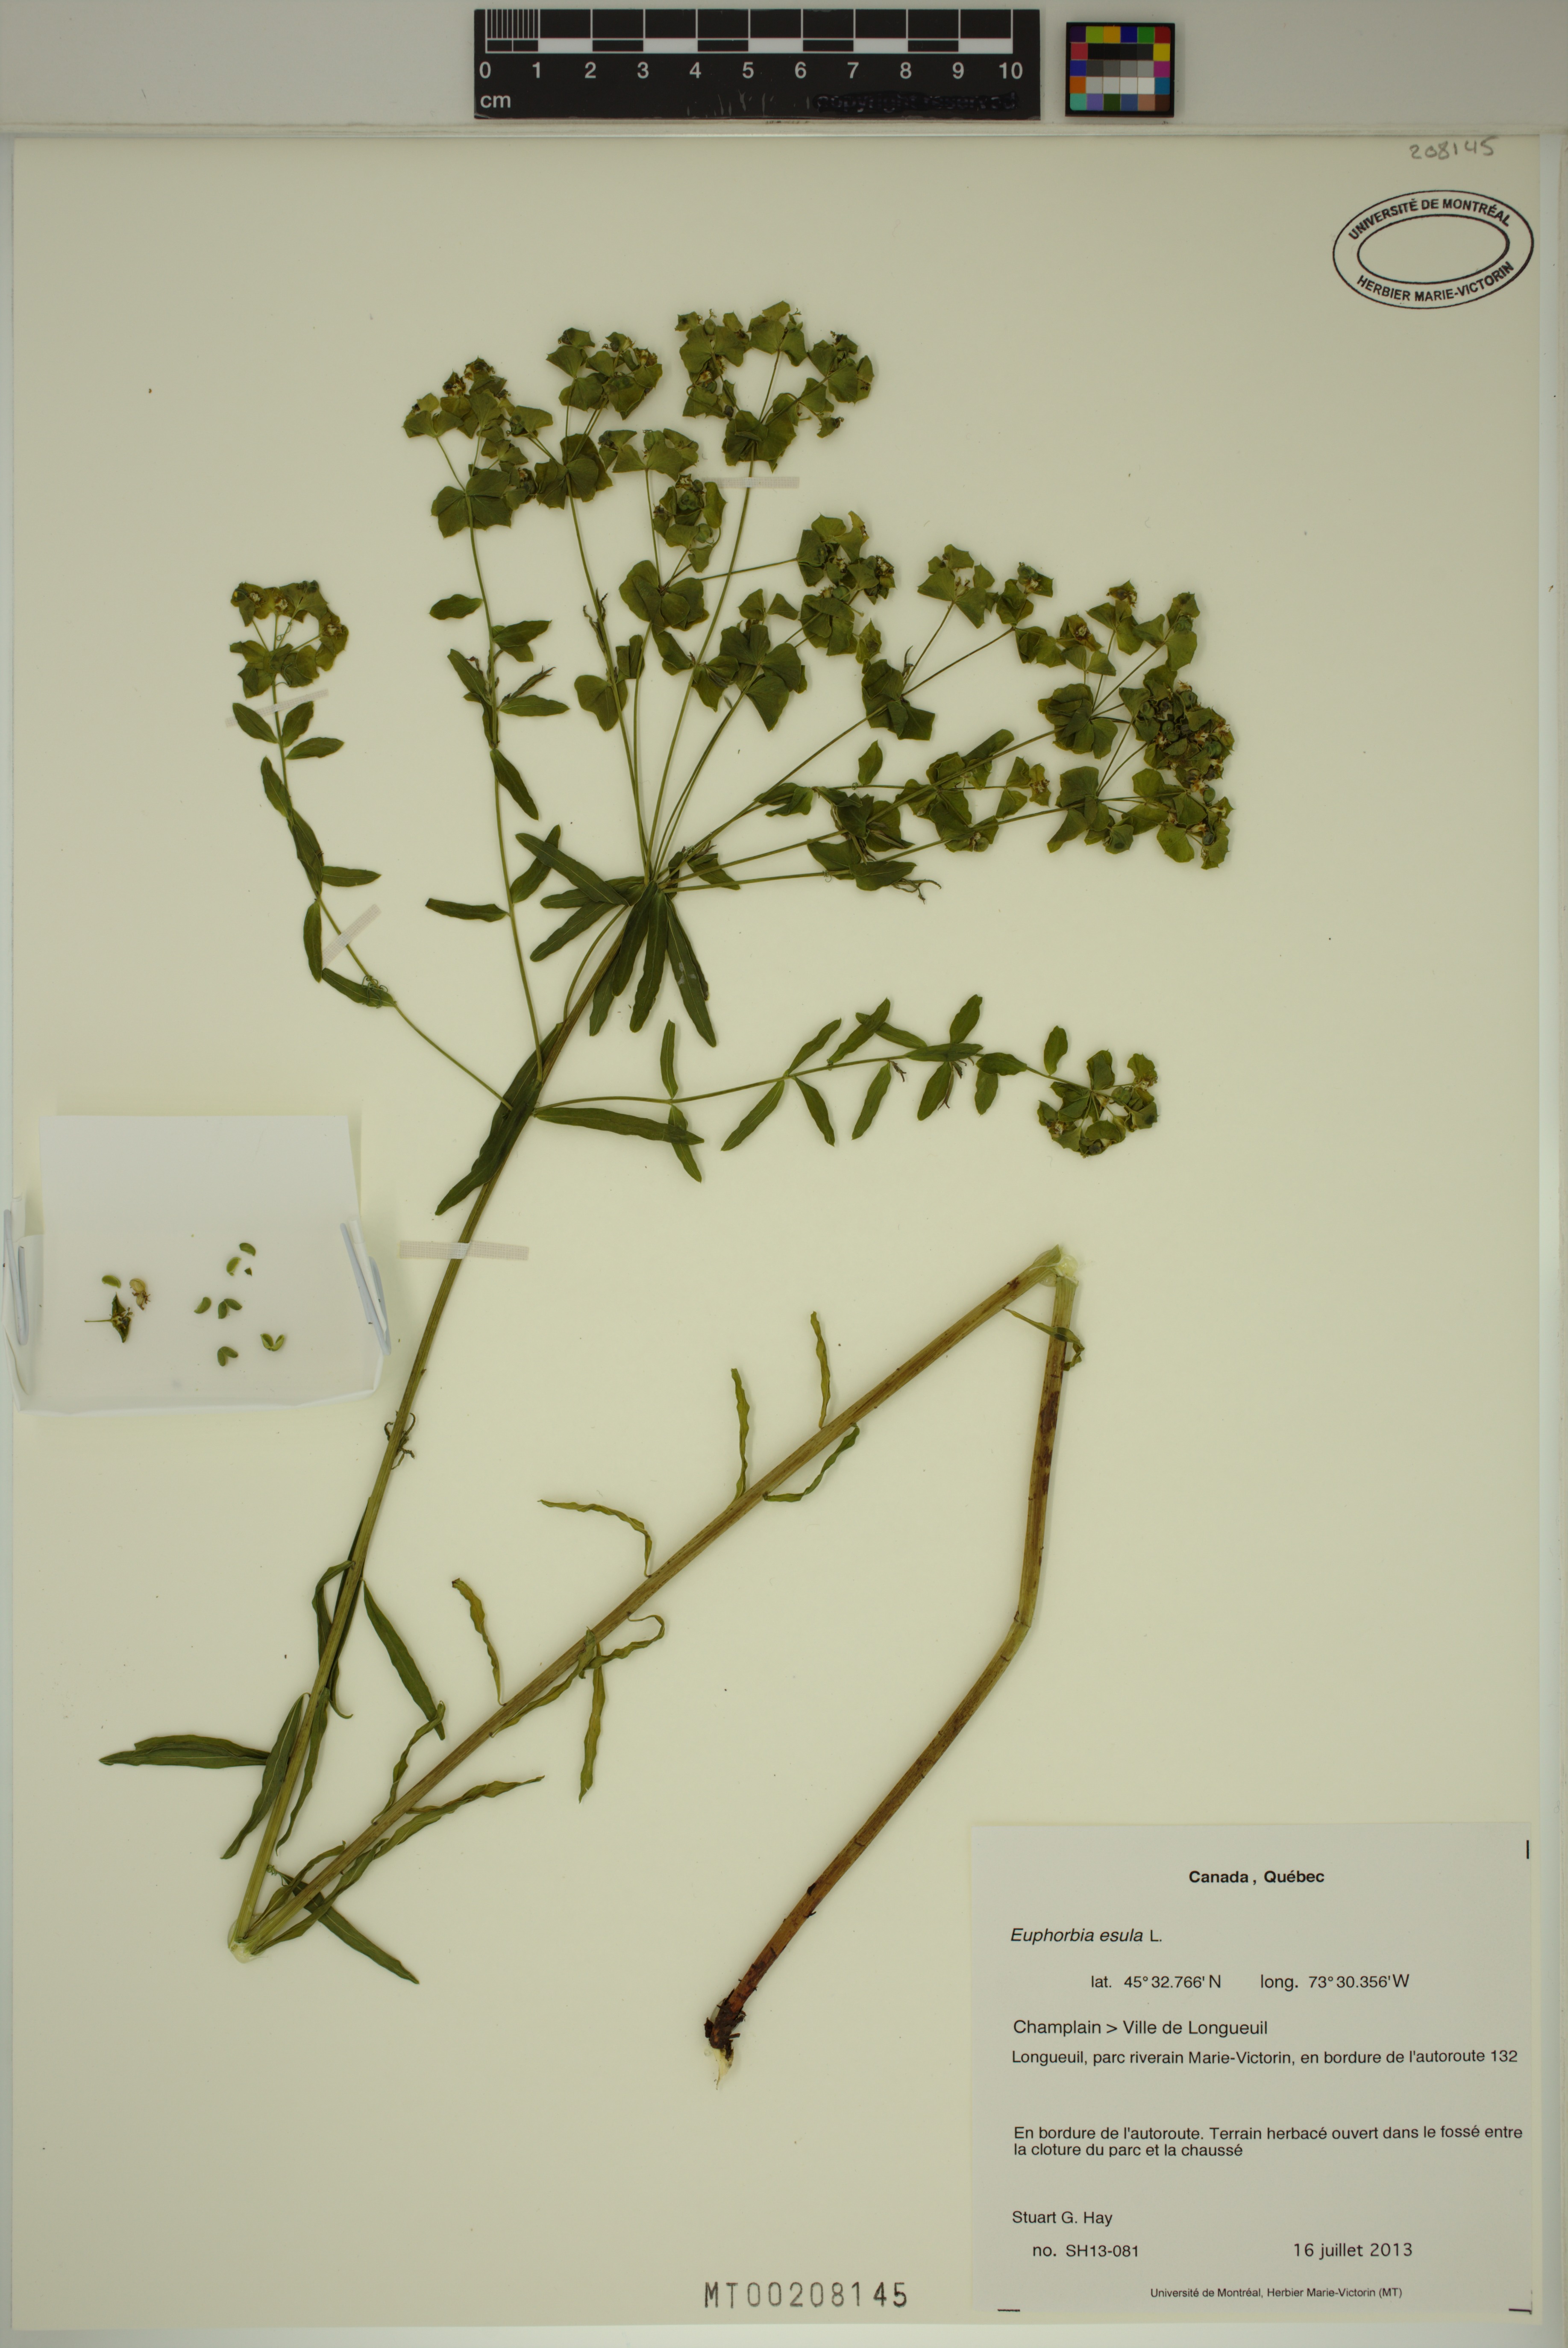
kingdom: Plantae
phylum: Tracheophyta
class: Magnoliopsida
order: Malpighiales
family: Euphorbiaceae
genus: Euphorbia
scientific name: Euphorbia esula
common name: Leafy spurge
